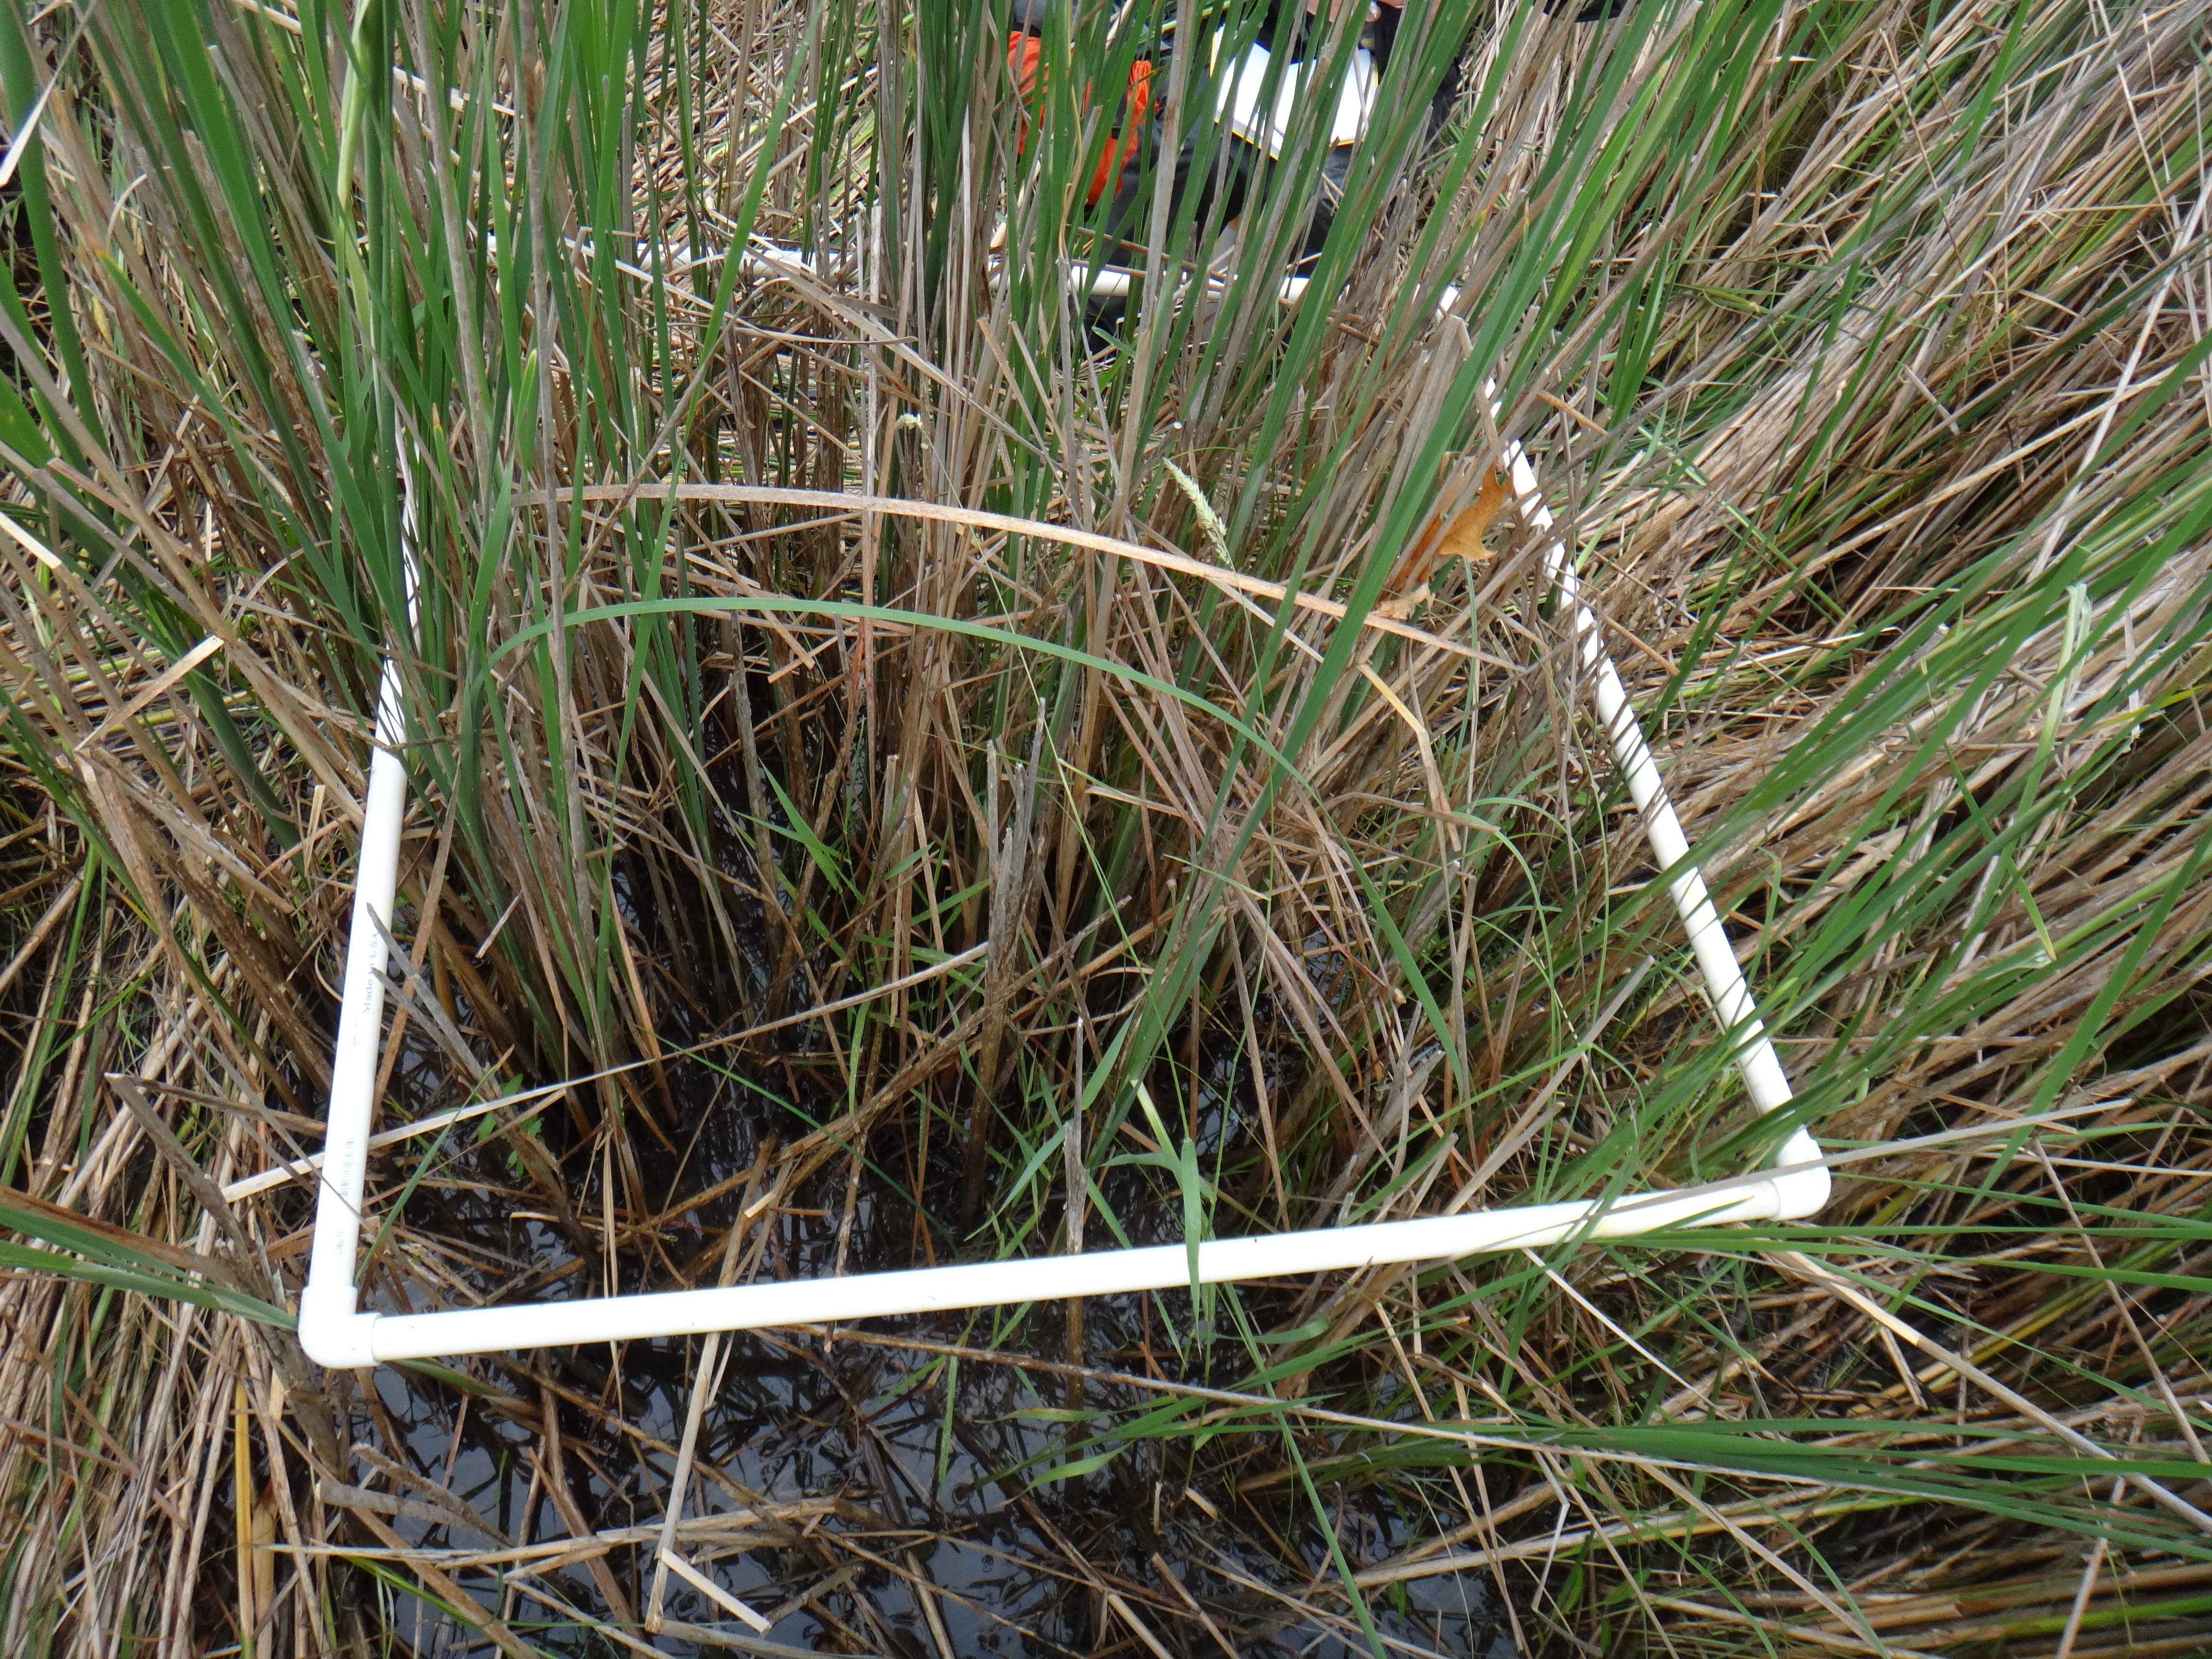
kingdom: Plantae
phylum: Tracheophyta
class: Magnoliopsida
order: Myrtales
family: Lythraceae
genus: Lythrum
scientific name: Lythrum salicaria
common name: Purple loosestrife
